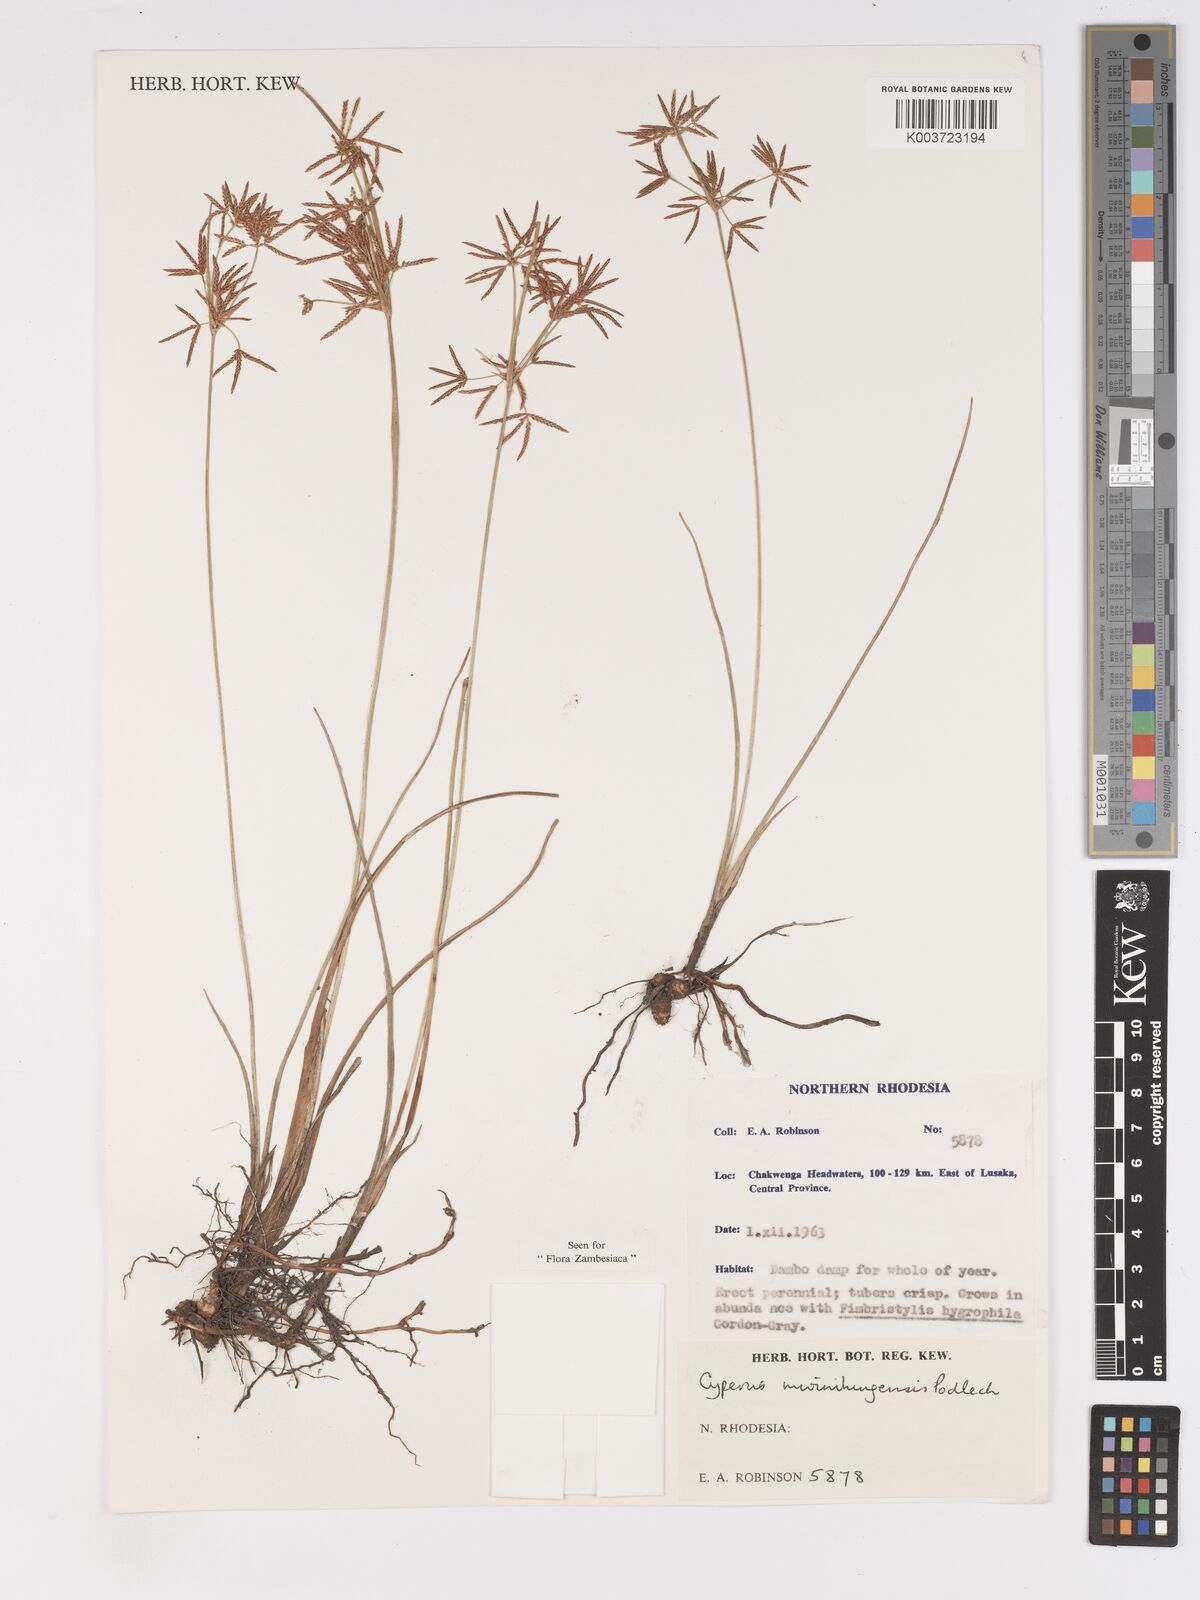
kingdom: Plantae
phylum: Tracheophyta
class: Liliopsida
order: Poales
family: Cyperaceae
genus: Cyperus
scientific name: Cyperus mwinilungensis
